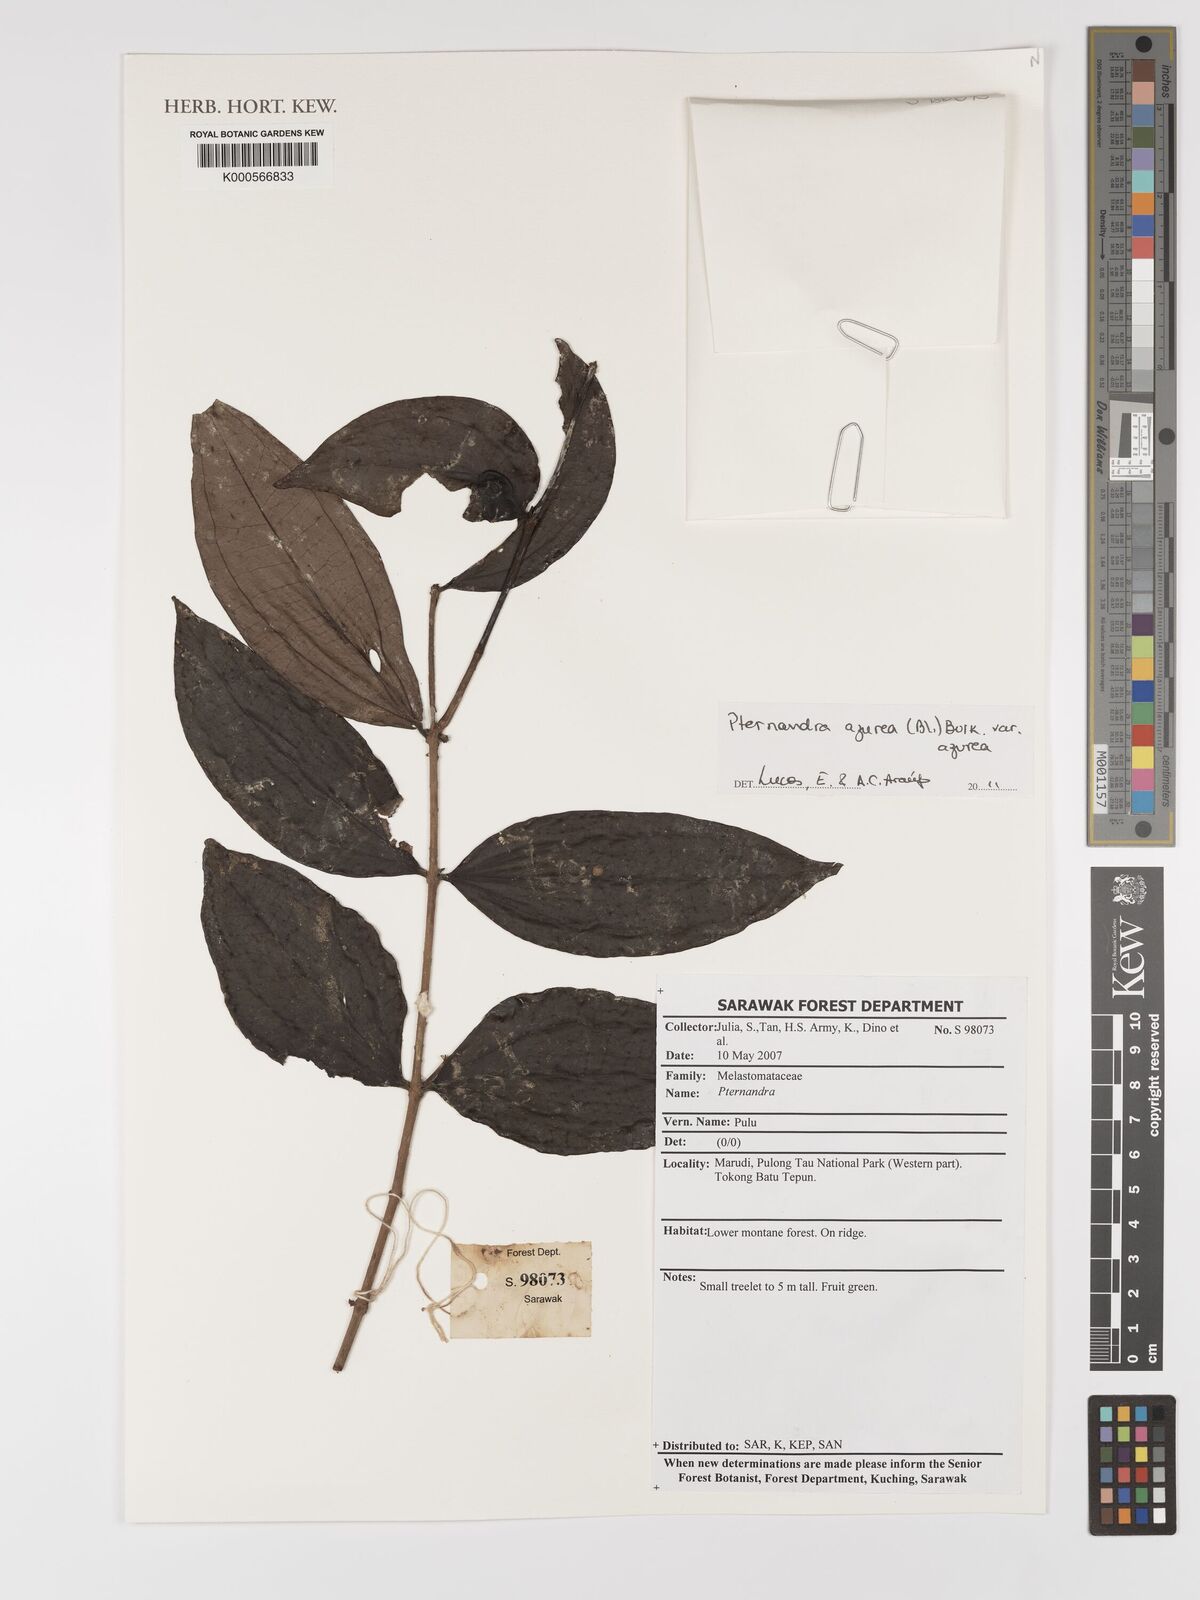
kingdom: Plantae
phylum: Tracheophyta
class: Magnoliopsida
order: Myrtales
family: Melastomataceae
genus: Pternandra
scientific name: Pternandra azurea
